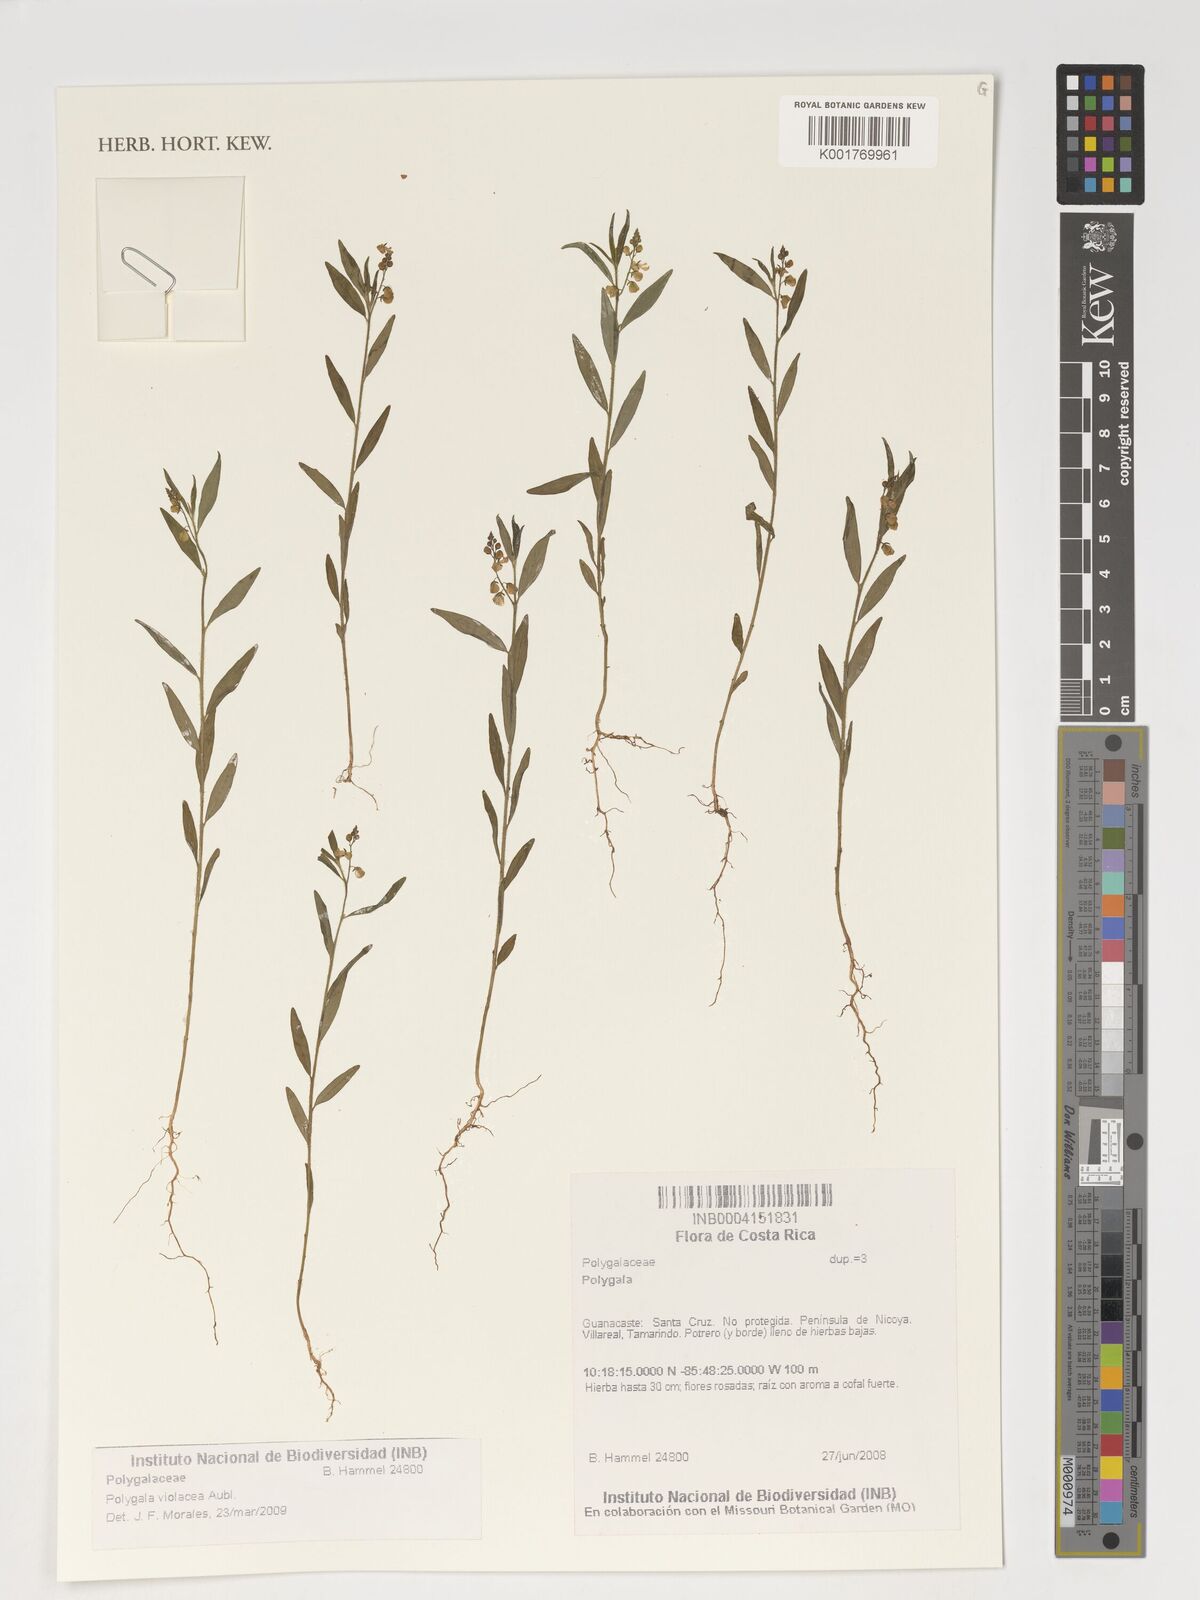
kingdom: Plantae
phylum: Tracheophyta
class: Magnoliopsida
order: Fabales
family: Polygalaceae
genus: Asemeia
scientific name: Asemeia violacea
